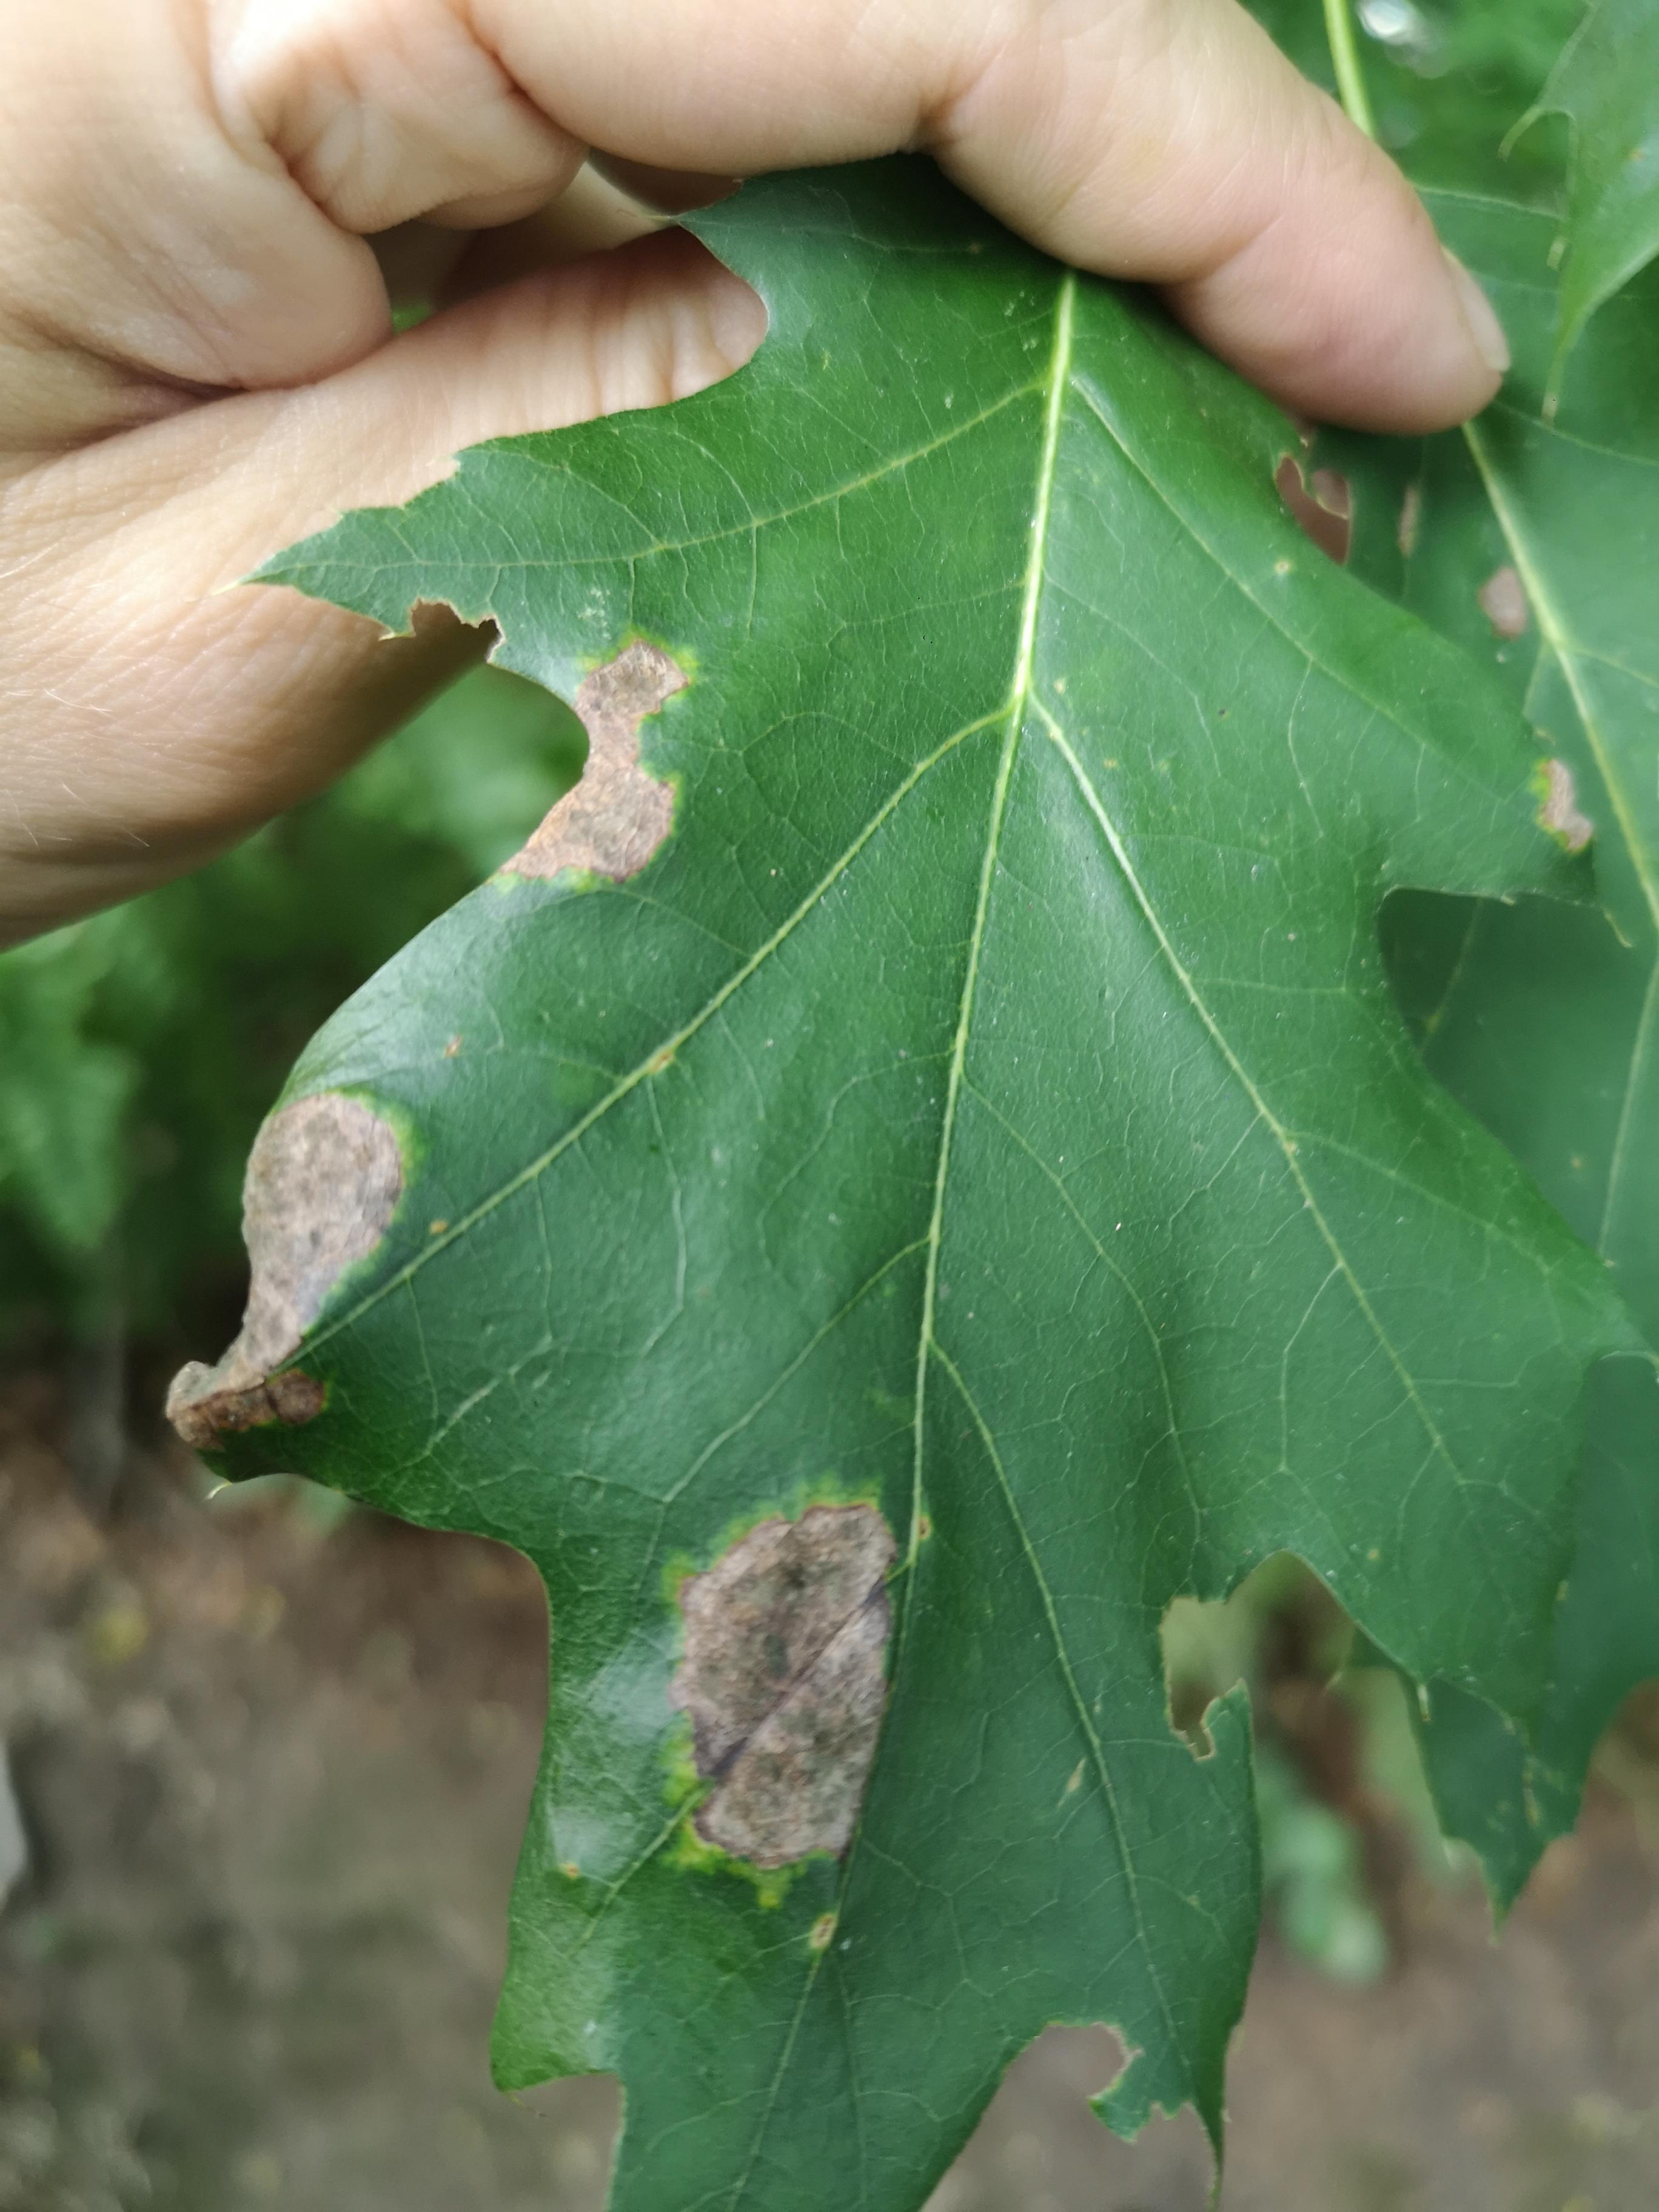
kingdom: Fungi
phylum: Ascomycota
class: Taphrinomycetes
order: Taphrinales
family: Taphrinaceae
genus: Taphrina
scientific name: Taphrina caerulescens
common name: Oak leaf blister
